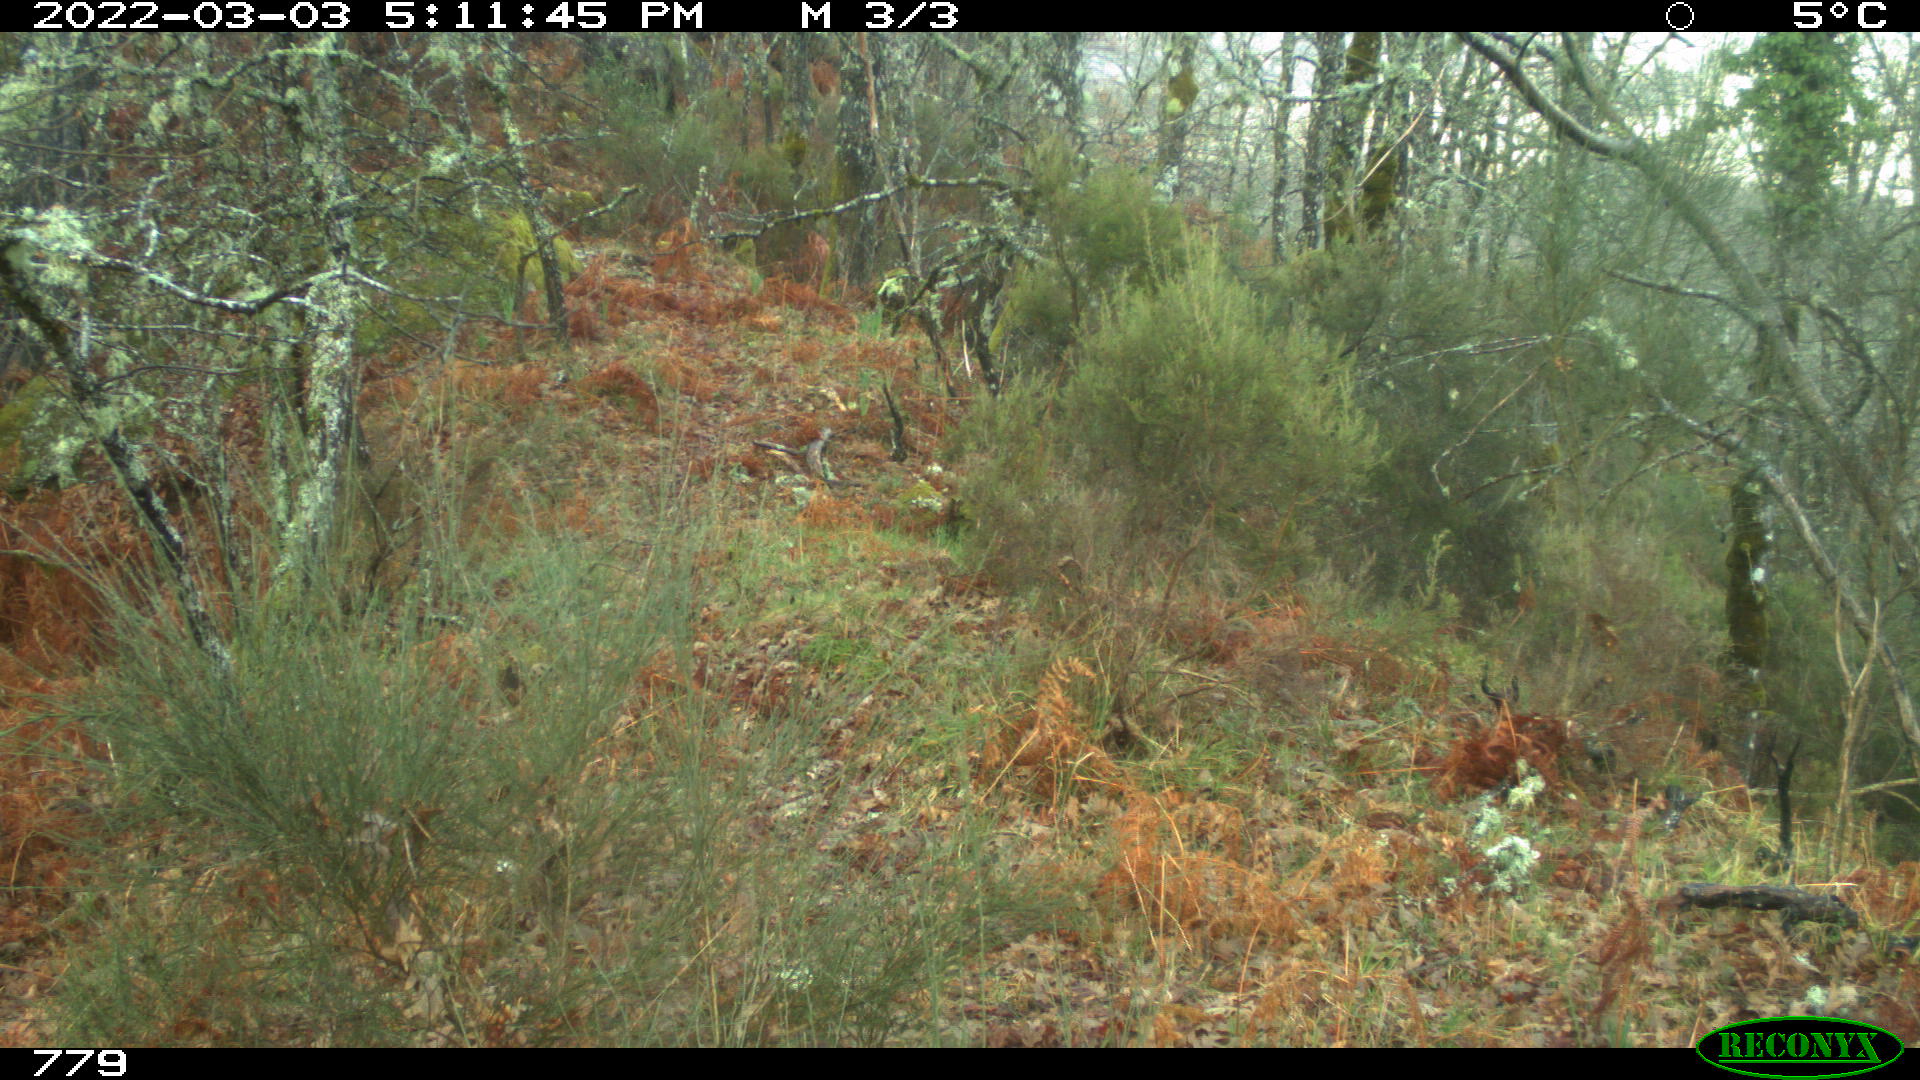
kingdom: Animalia
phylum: Chordata
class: Mammalia
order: Perissodactyla
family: Equidae
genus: Equus
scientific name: Equus caballus
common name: Horse
